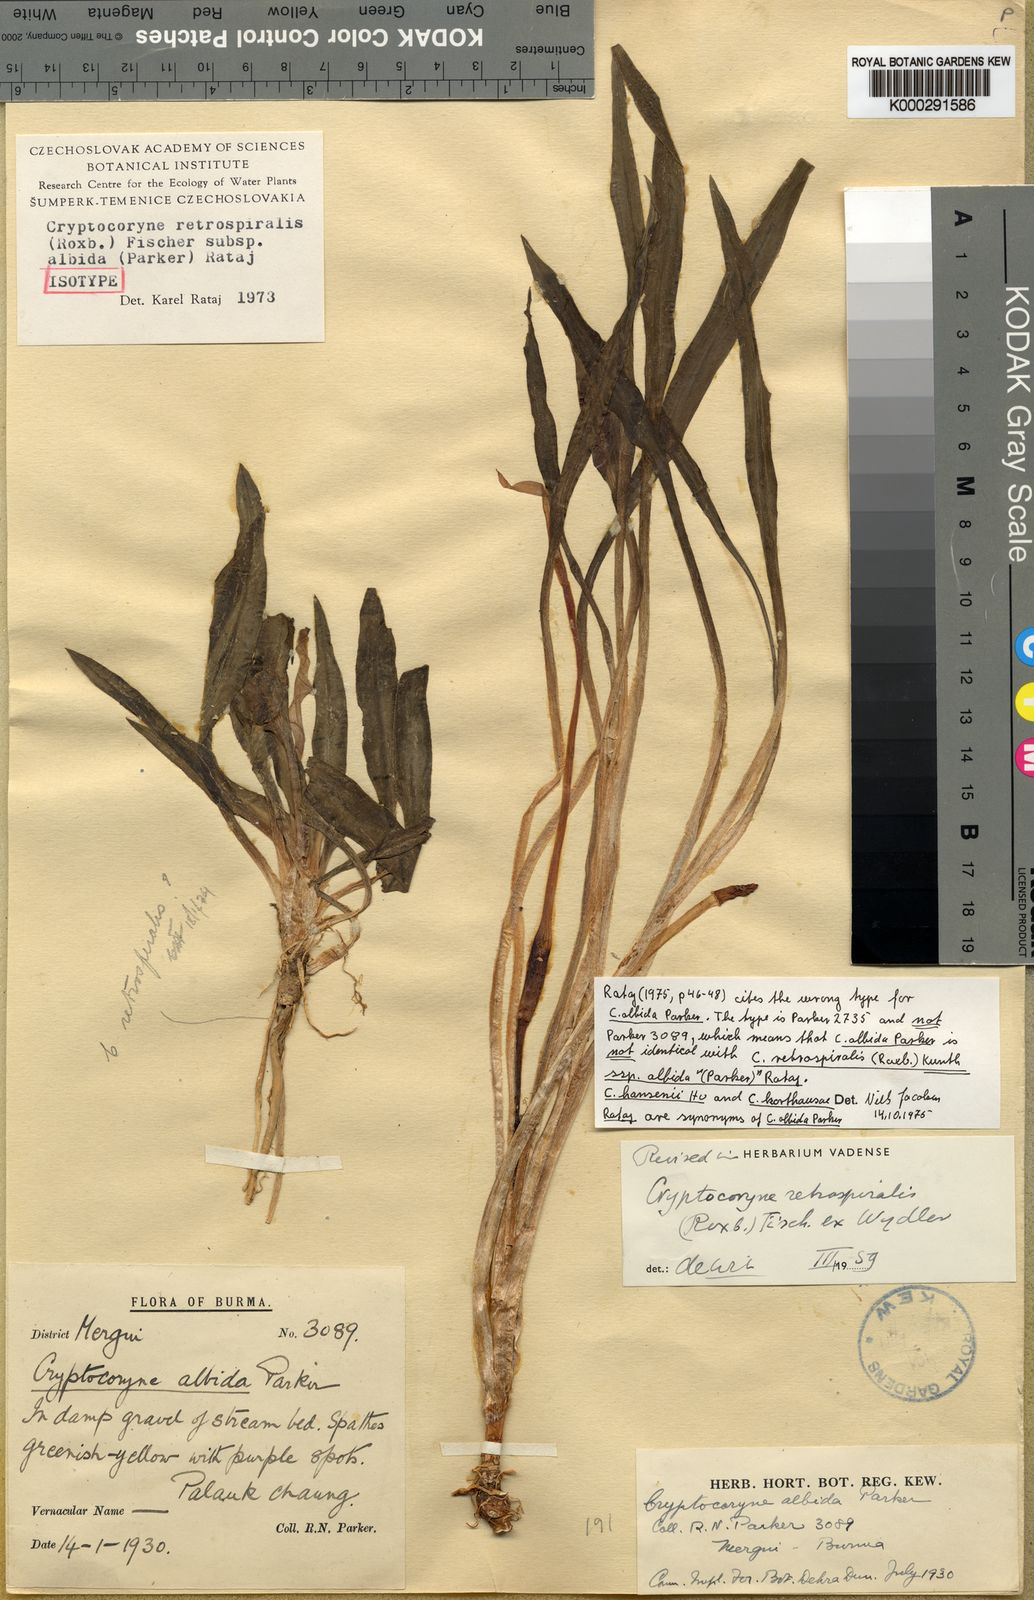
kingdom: Plantae
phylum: Tracheophyta
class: Liliopsida
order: Alismatales
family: Araceae
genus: Cryptocoryne
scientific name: Cryptocoryne albida
